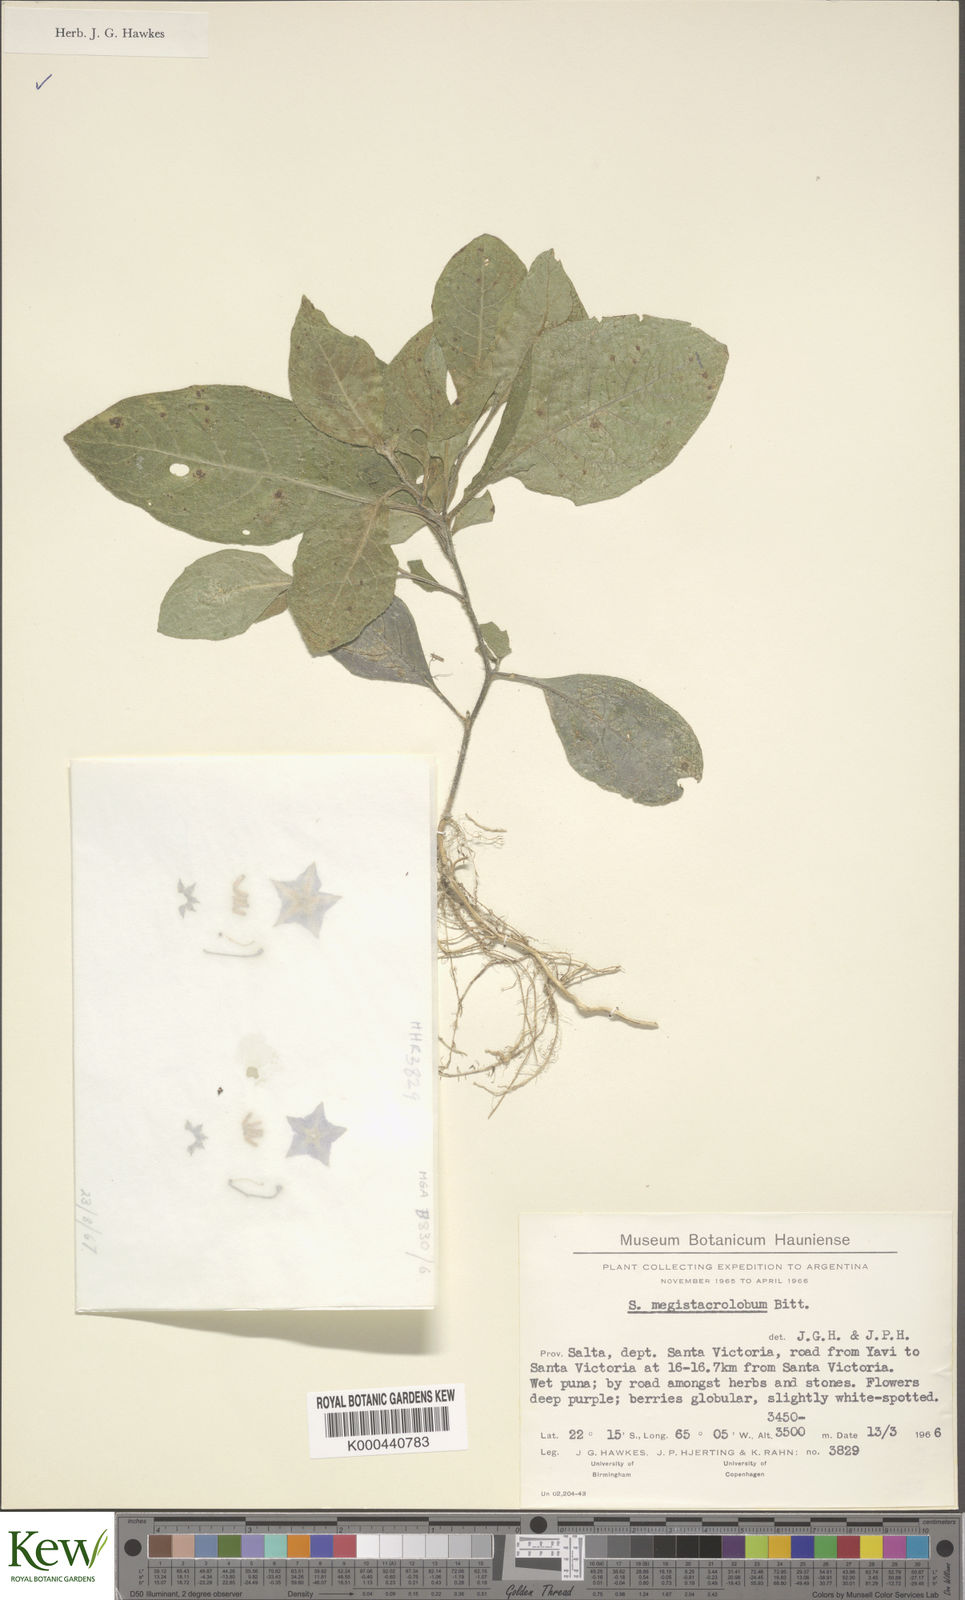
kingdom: Plantae
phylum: Tracheophyta
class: Magnoliopsida
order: Solanales
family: Solanaceae
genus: Solanum
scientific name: Solanum boliviense
